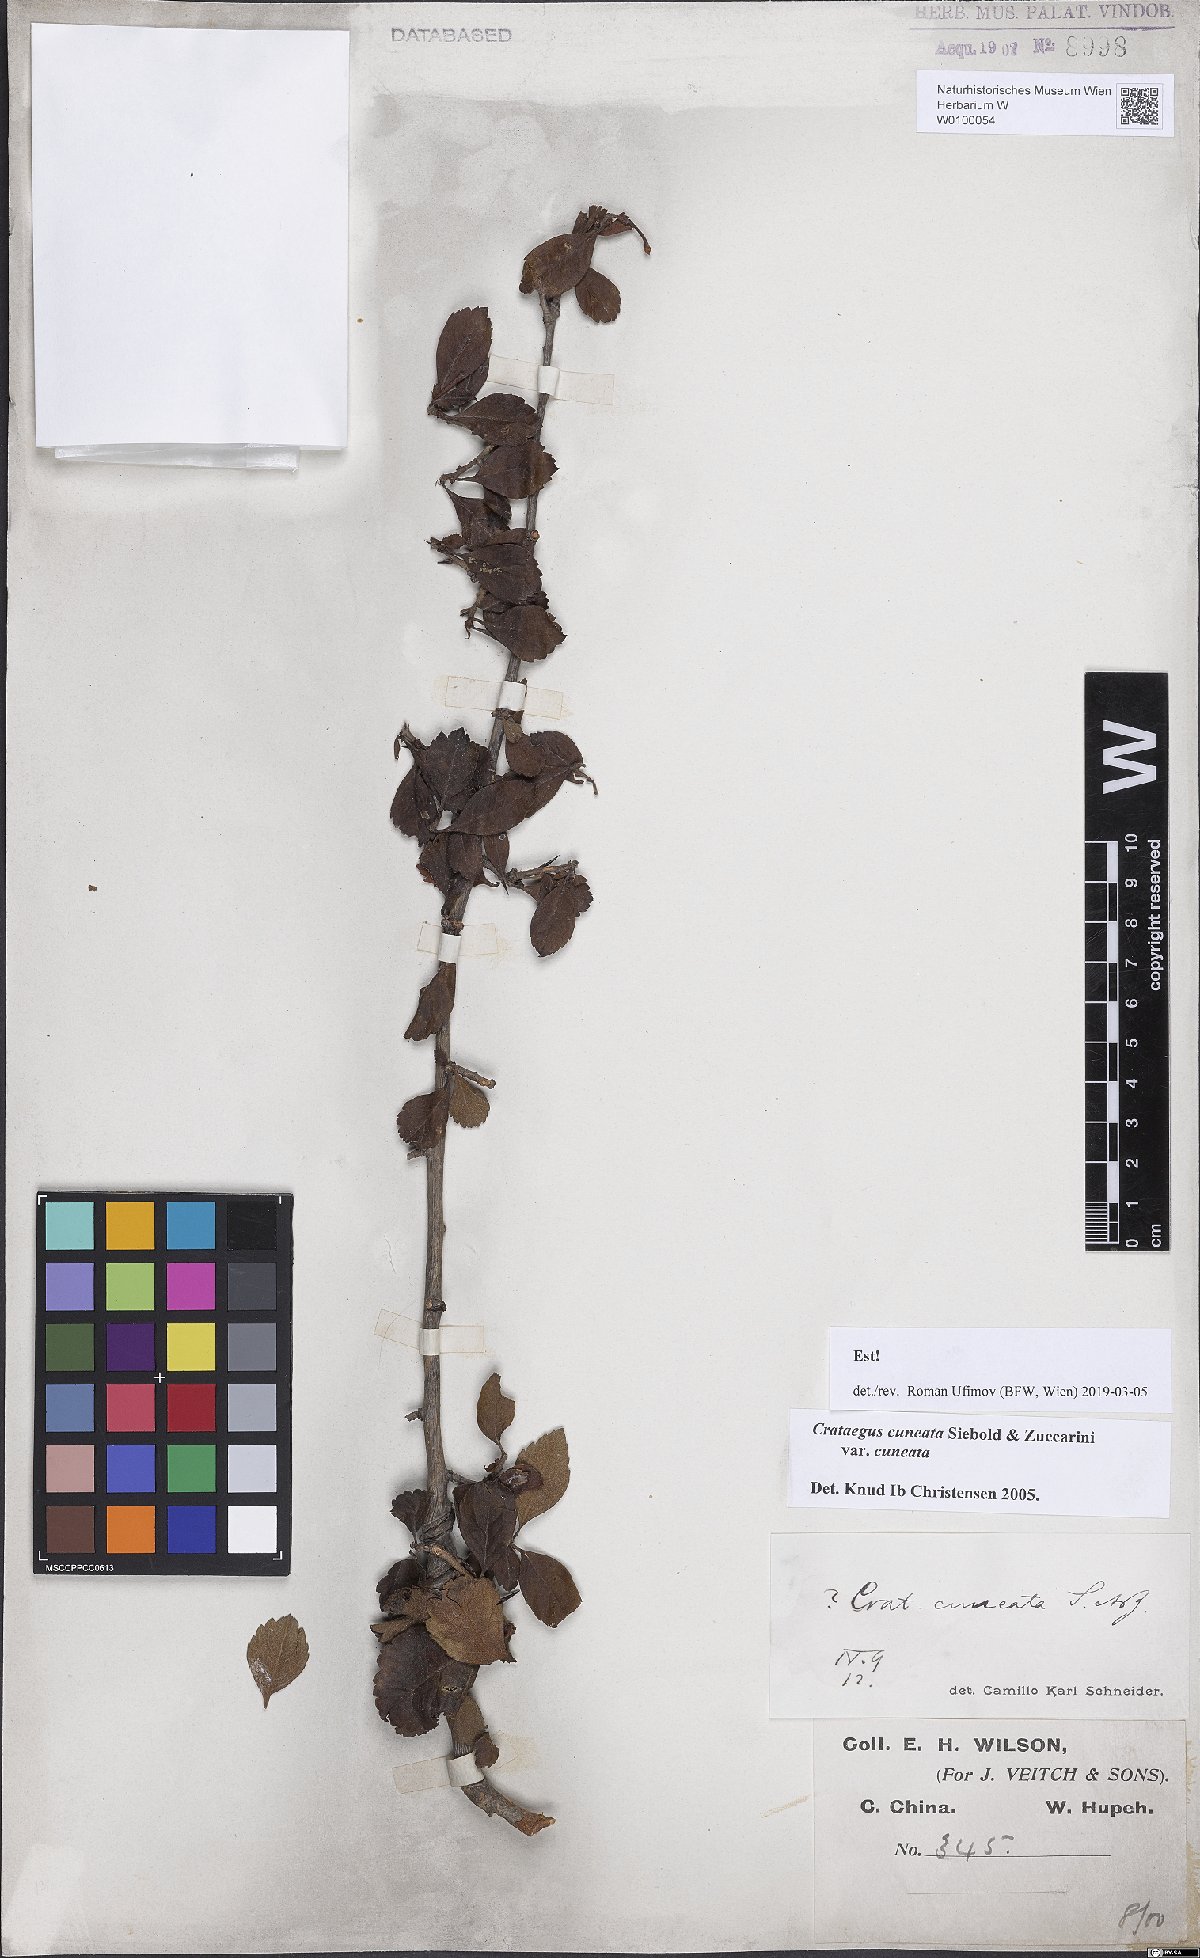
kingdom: Plantae
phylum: Tracheophyta
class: Magnoliopsida
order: Rosales
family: Rosaceae
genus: Crataegus
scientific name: Crataegus cuneata
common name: Chinese hawthorn
